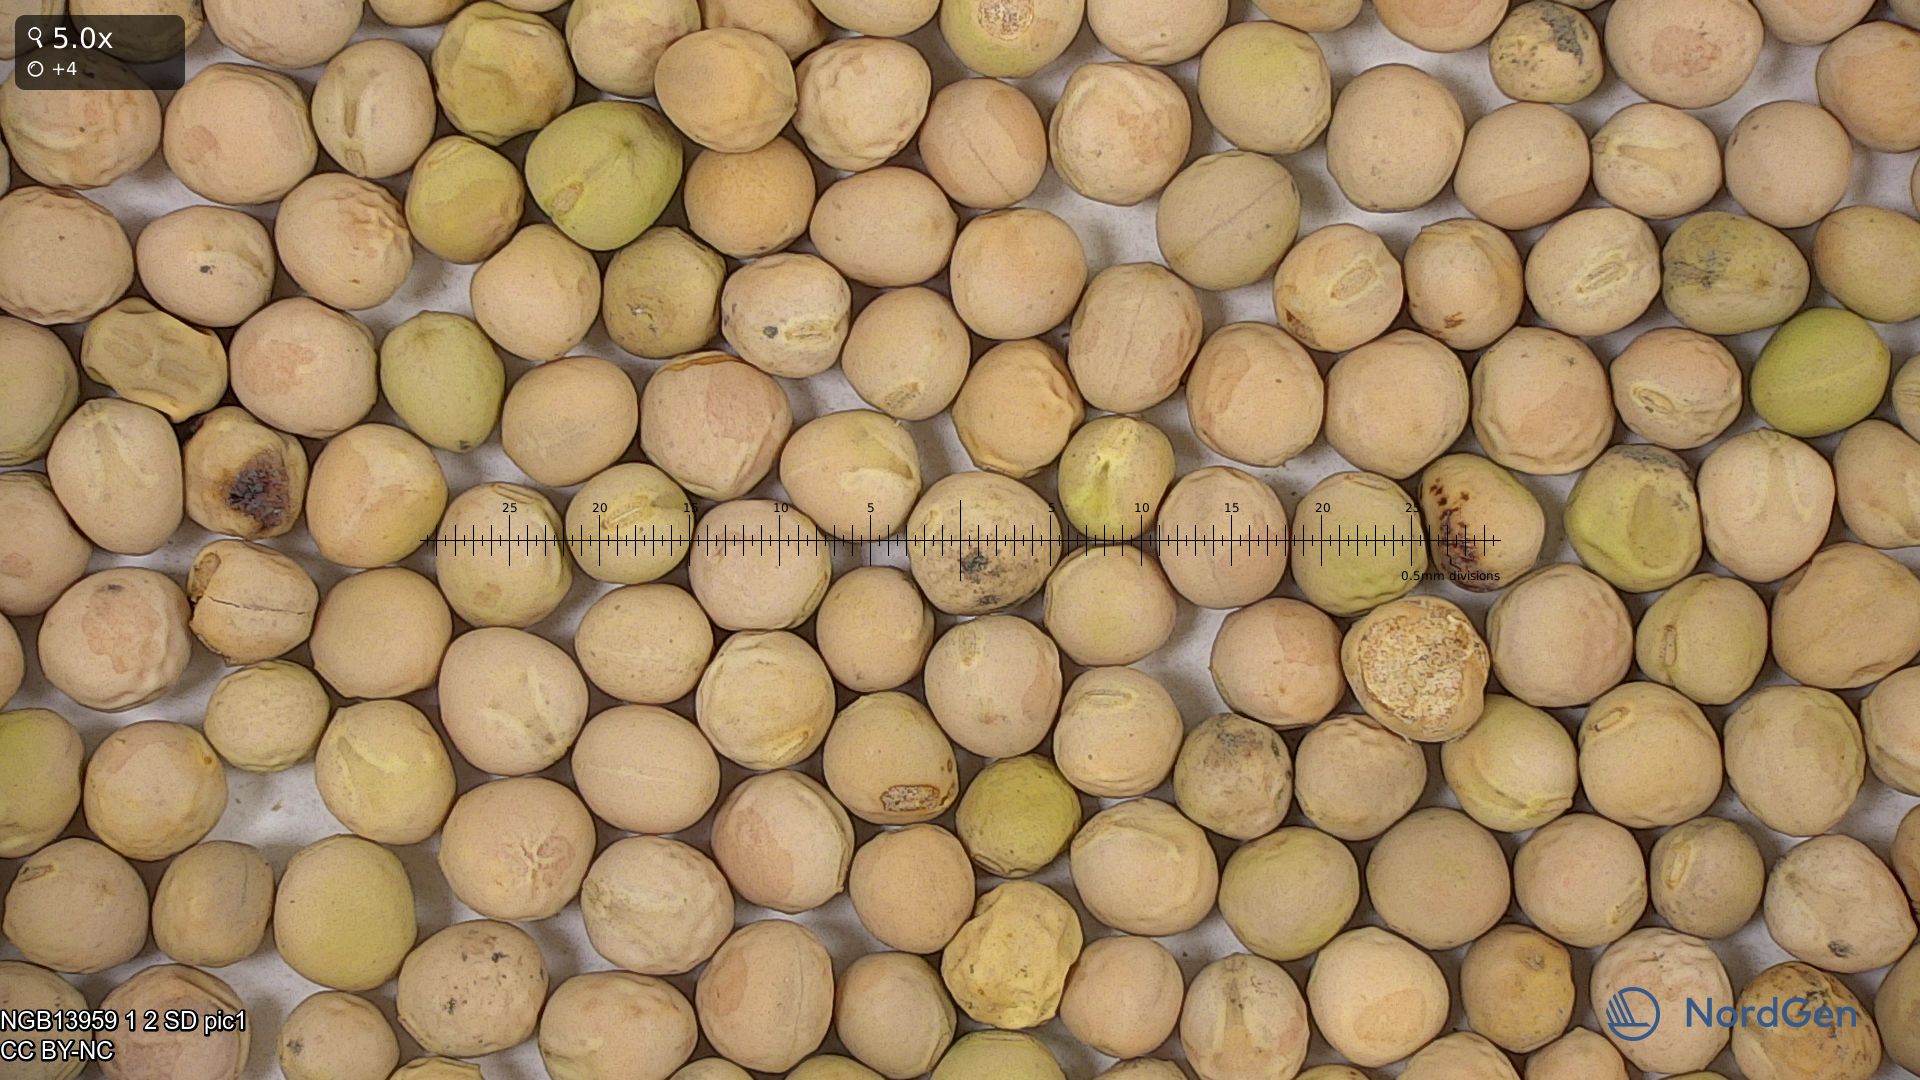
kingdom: Plantae
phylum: Tracheophyta
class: Magnoliopsida
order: Fabales
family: Fabaceae
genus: Lathyrus
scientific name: Lathyrus oleraceus
